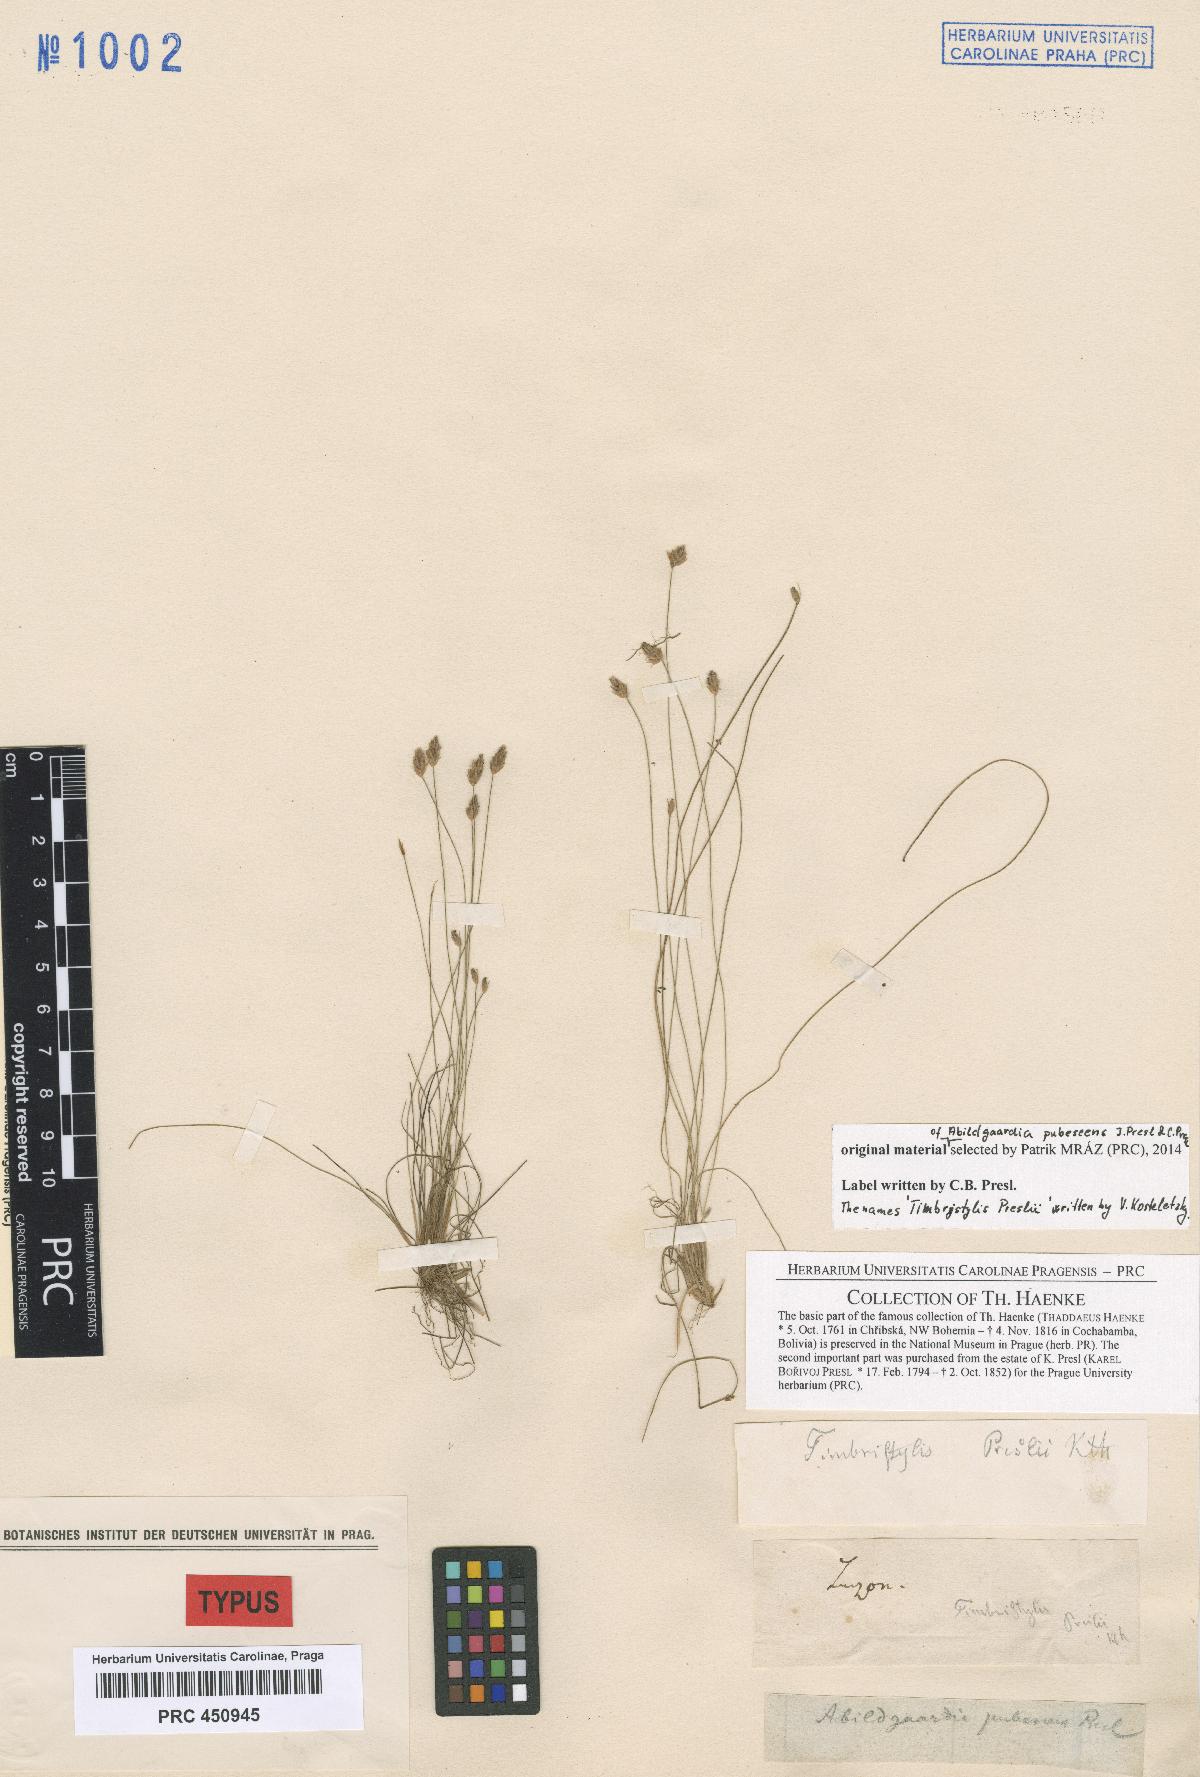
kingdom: Plantae
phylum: Tracheophyta
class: Liliopsida
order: Poales
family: Cyperaceae
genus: Bulbostylis
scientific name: Bulbostylis pubescens
